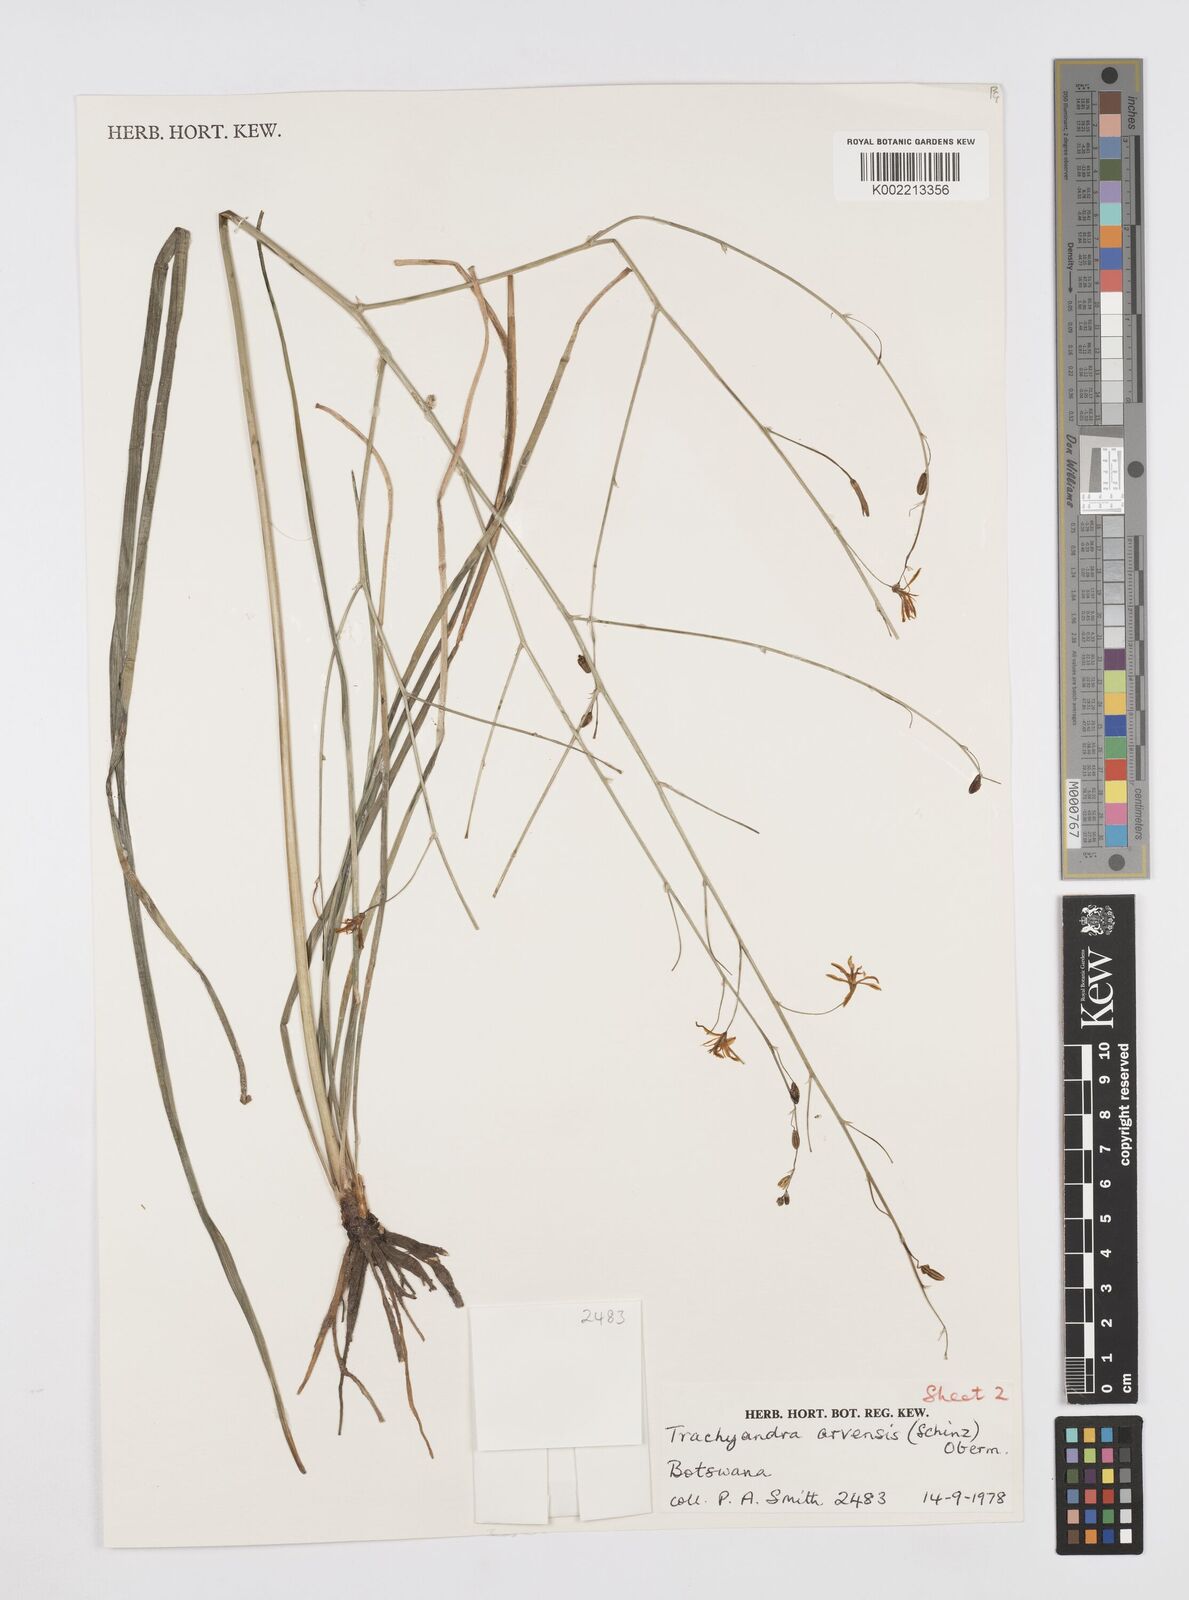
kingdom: Plantae
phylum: Tracheophyta
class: Liliopsida
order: Asparagales
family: Asphodelaceae
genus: Trachyandra
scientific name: Trachyandra arvensis
